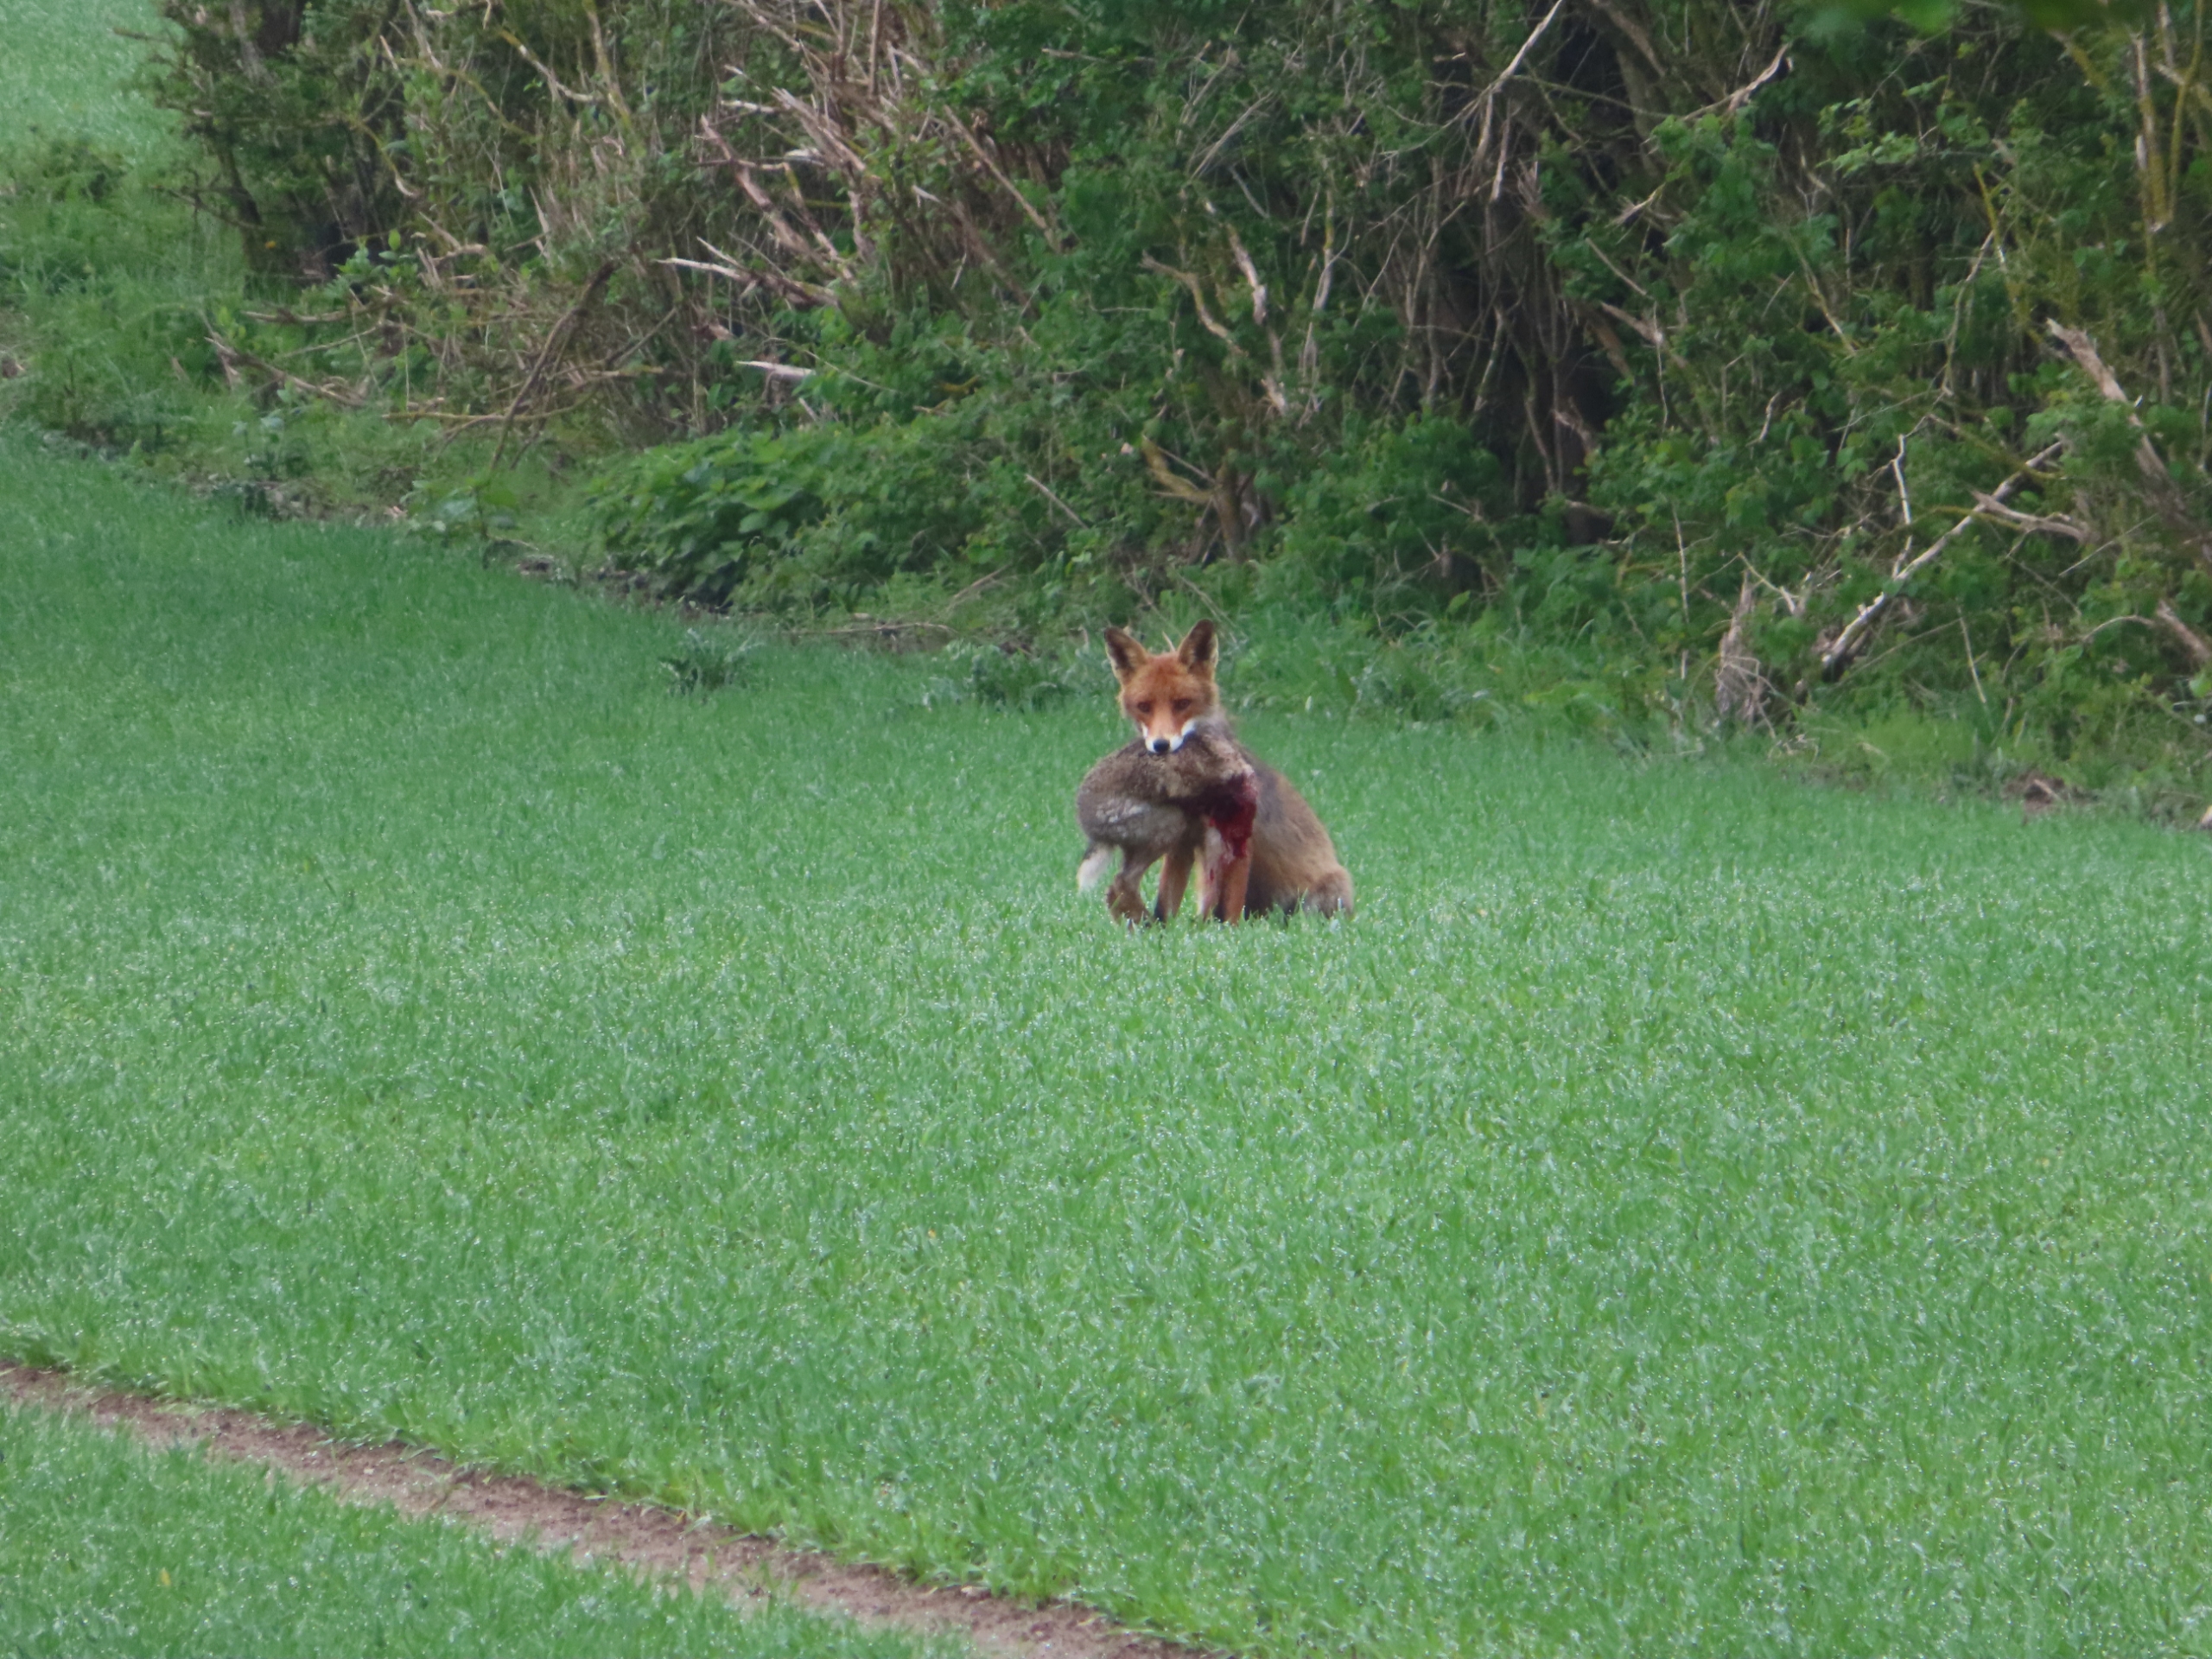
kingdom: Animalia
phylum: Chordata
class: Mammalia
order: Carnivora
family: Canidae
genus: Vulpes
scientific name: Vulpes vulpes
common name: Ræv
